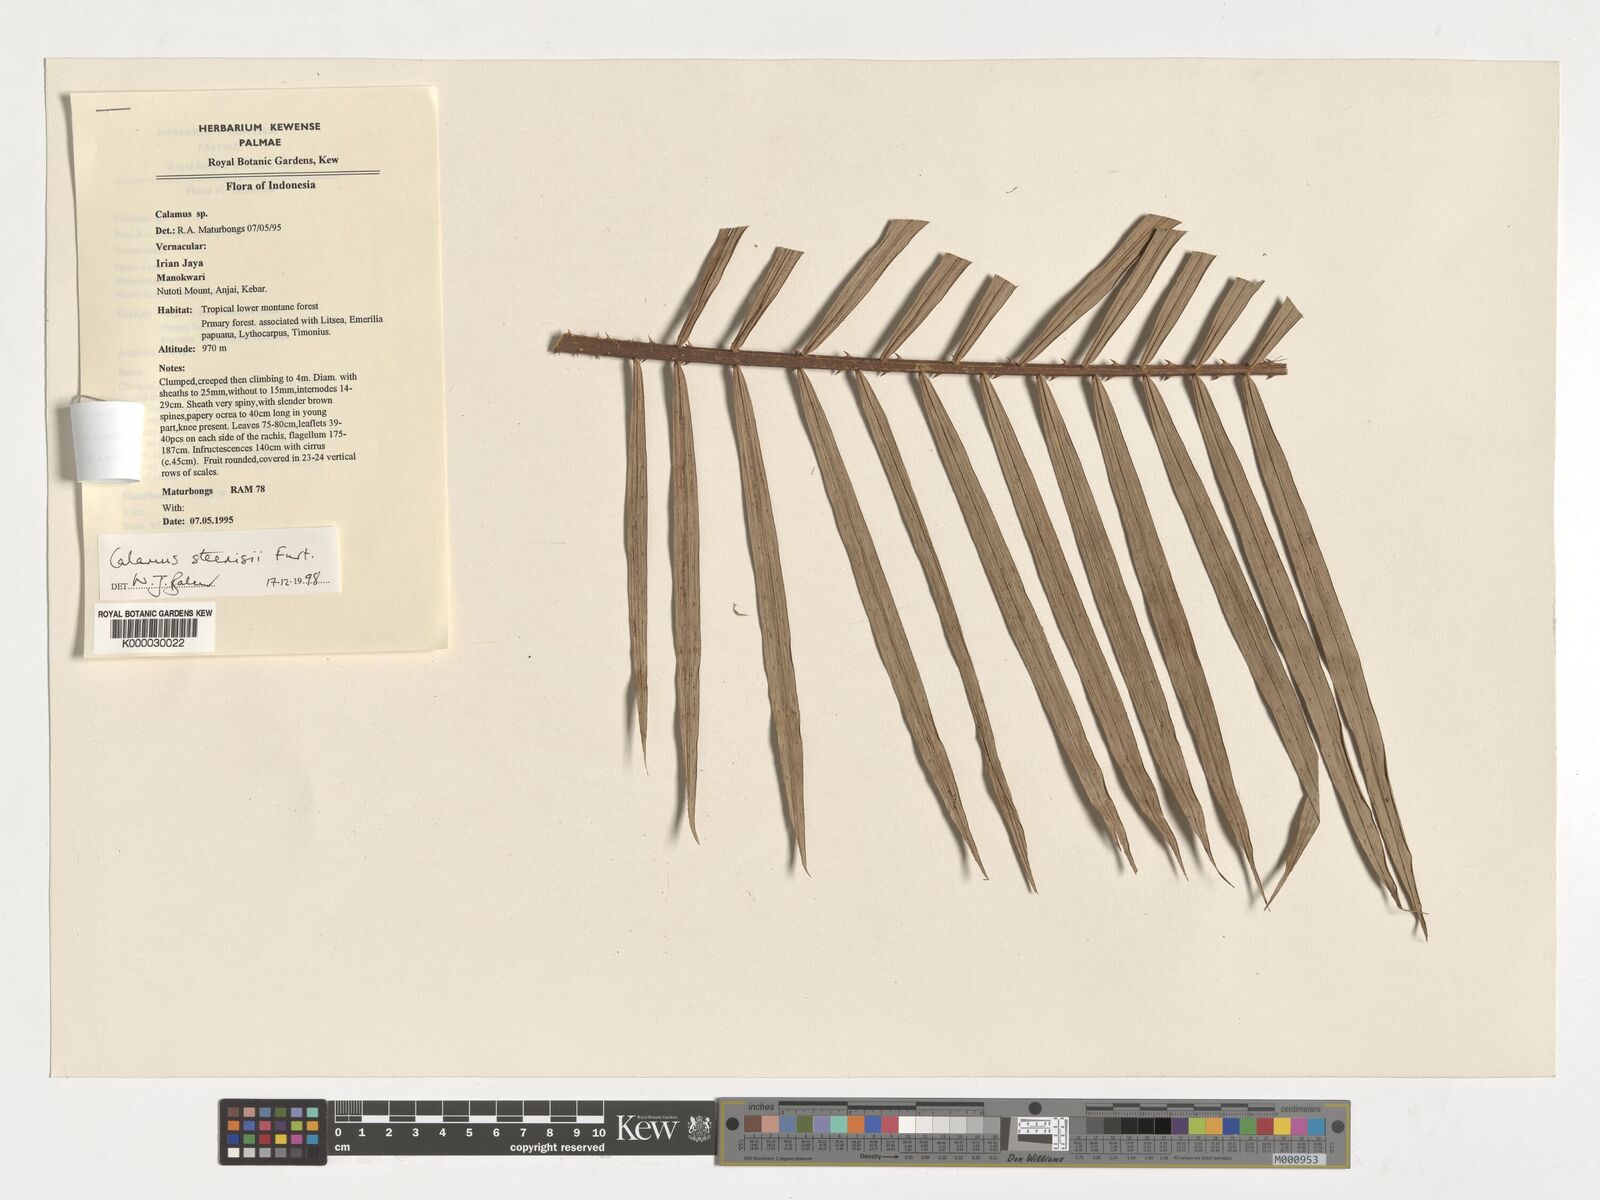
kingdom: Plantae
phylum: Tracheophyta
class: Liliopsida
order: Arecales
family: Arecaceae
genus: Calamus
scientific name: Calamus zebrinus
